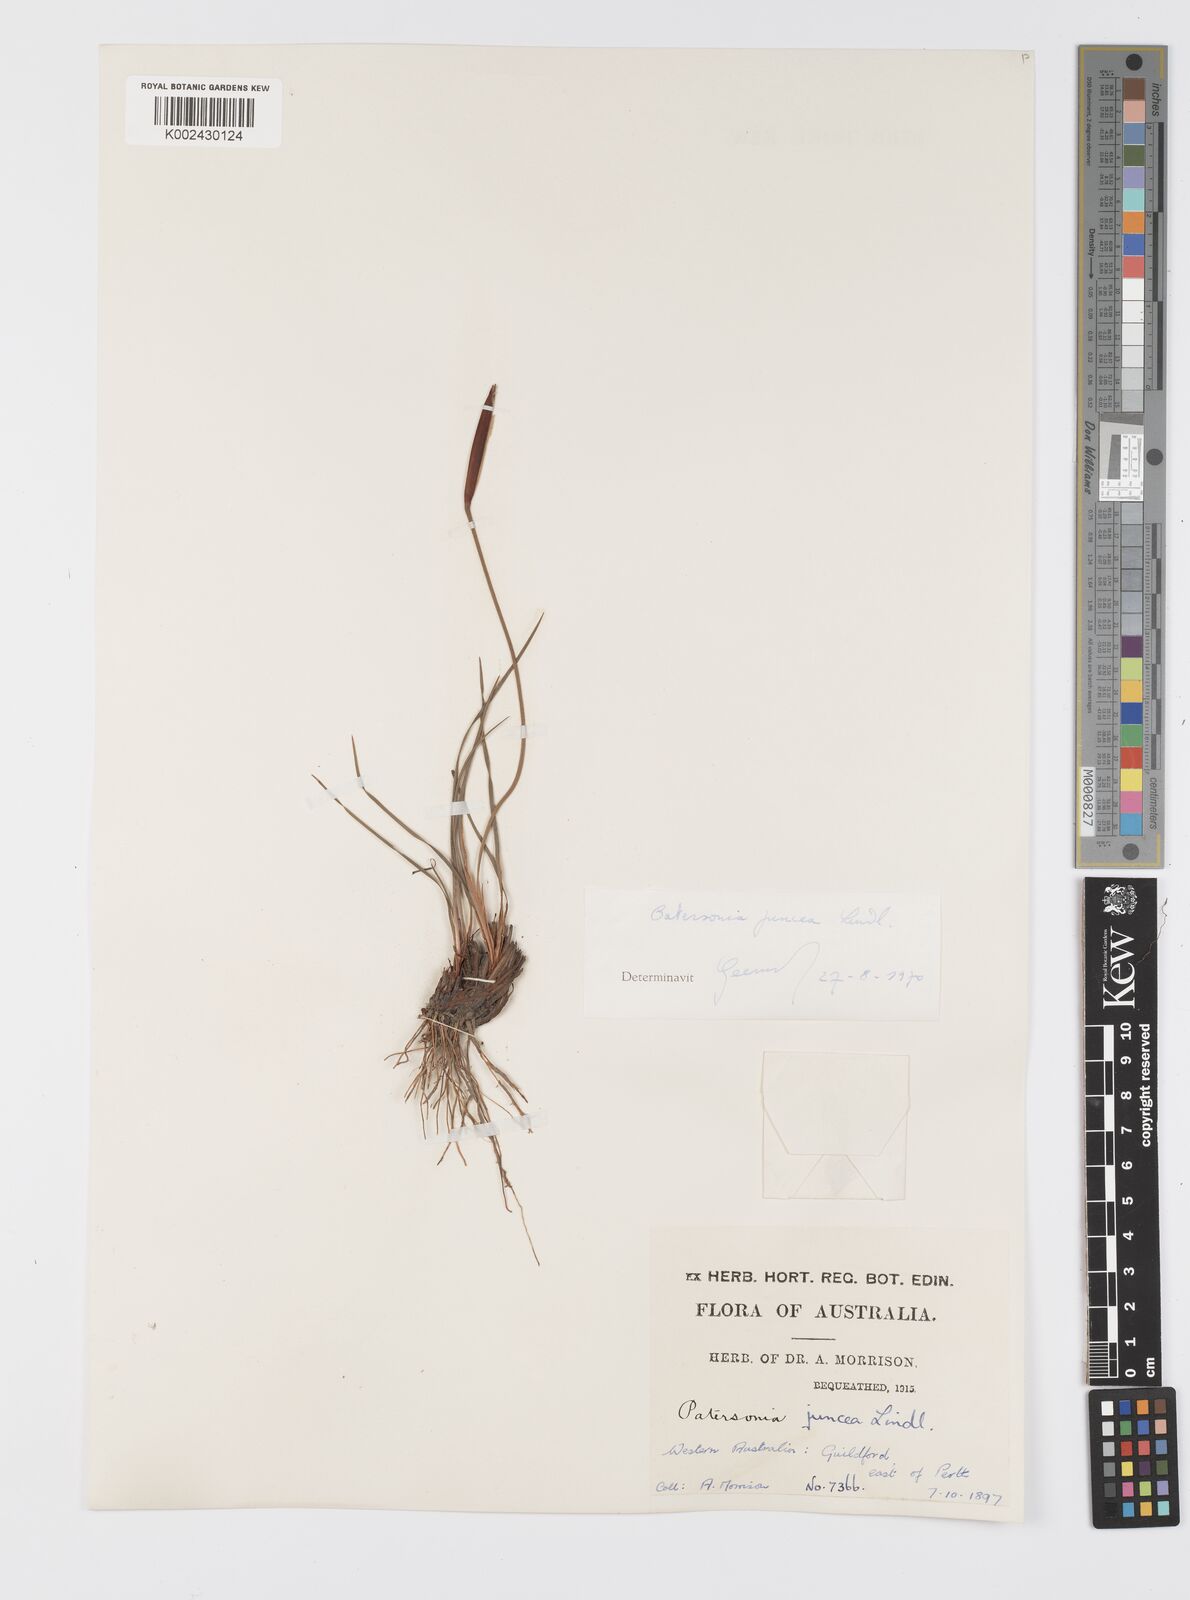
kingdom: Plantae
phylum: Tracheophyta
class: Liliopsida
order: Asparagales
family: Iridaceae
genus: Patersonia
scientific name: Patersonia juncea
